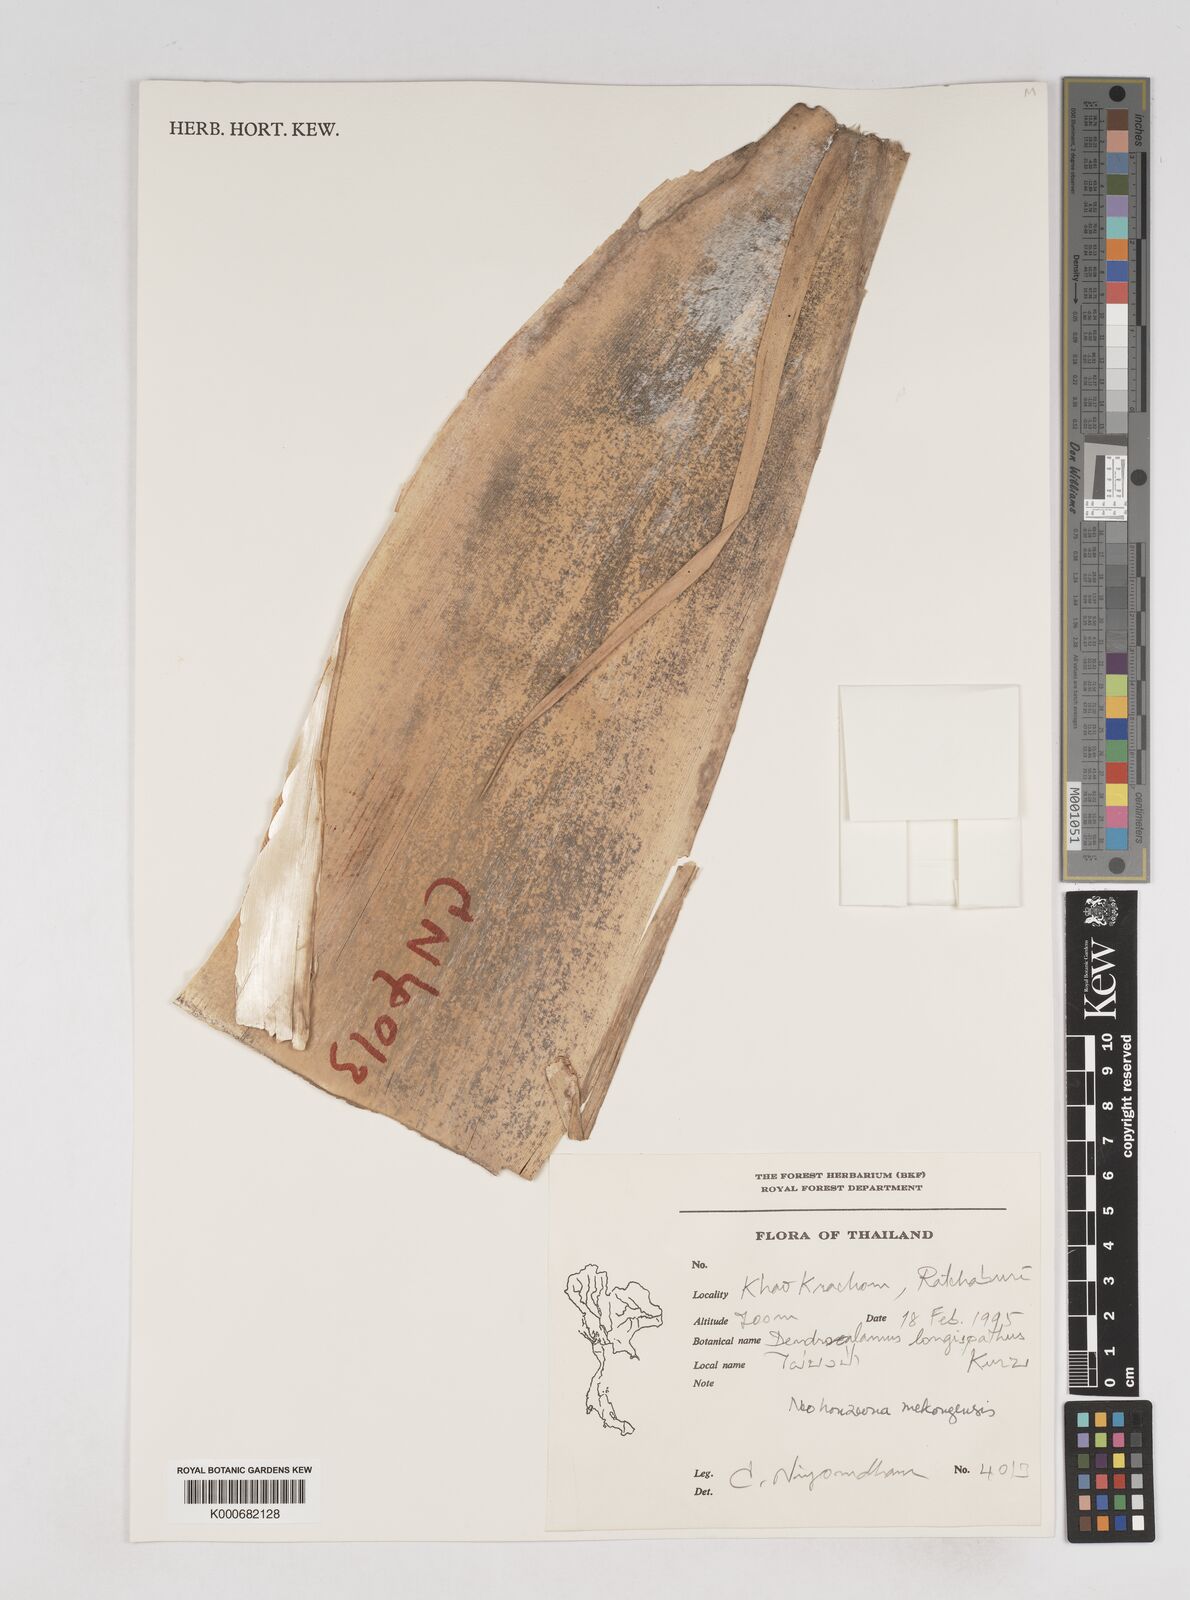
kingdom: Plantae
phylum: Tracheophyta
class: Liliopsida
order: Poales
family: Poaceae
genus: Schizostachyum
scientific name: Schizostachyum mekongensis
